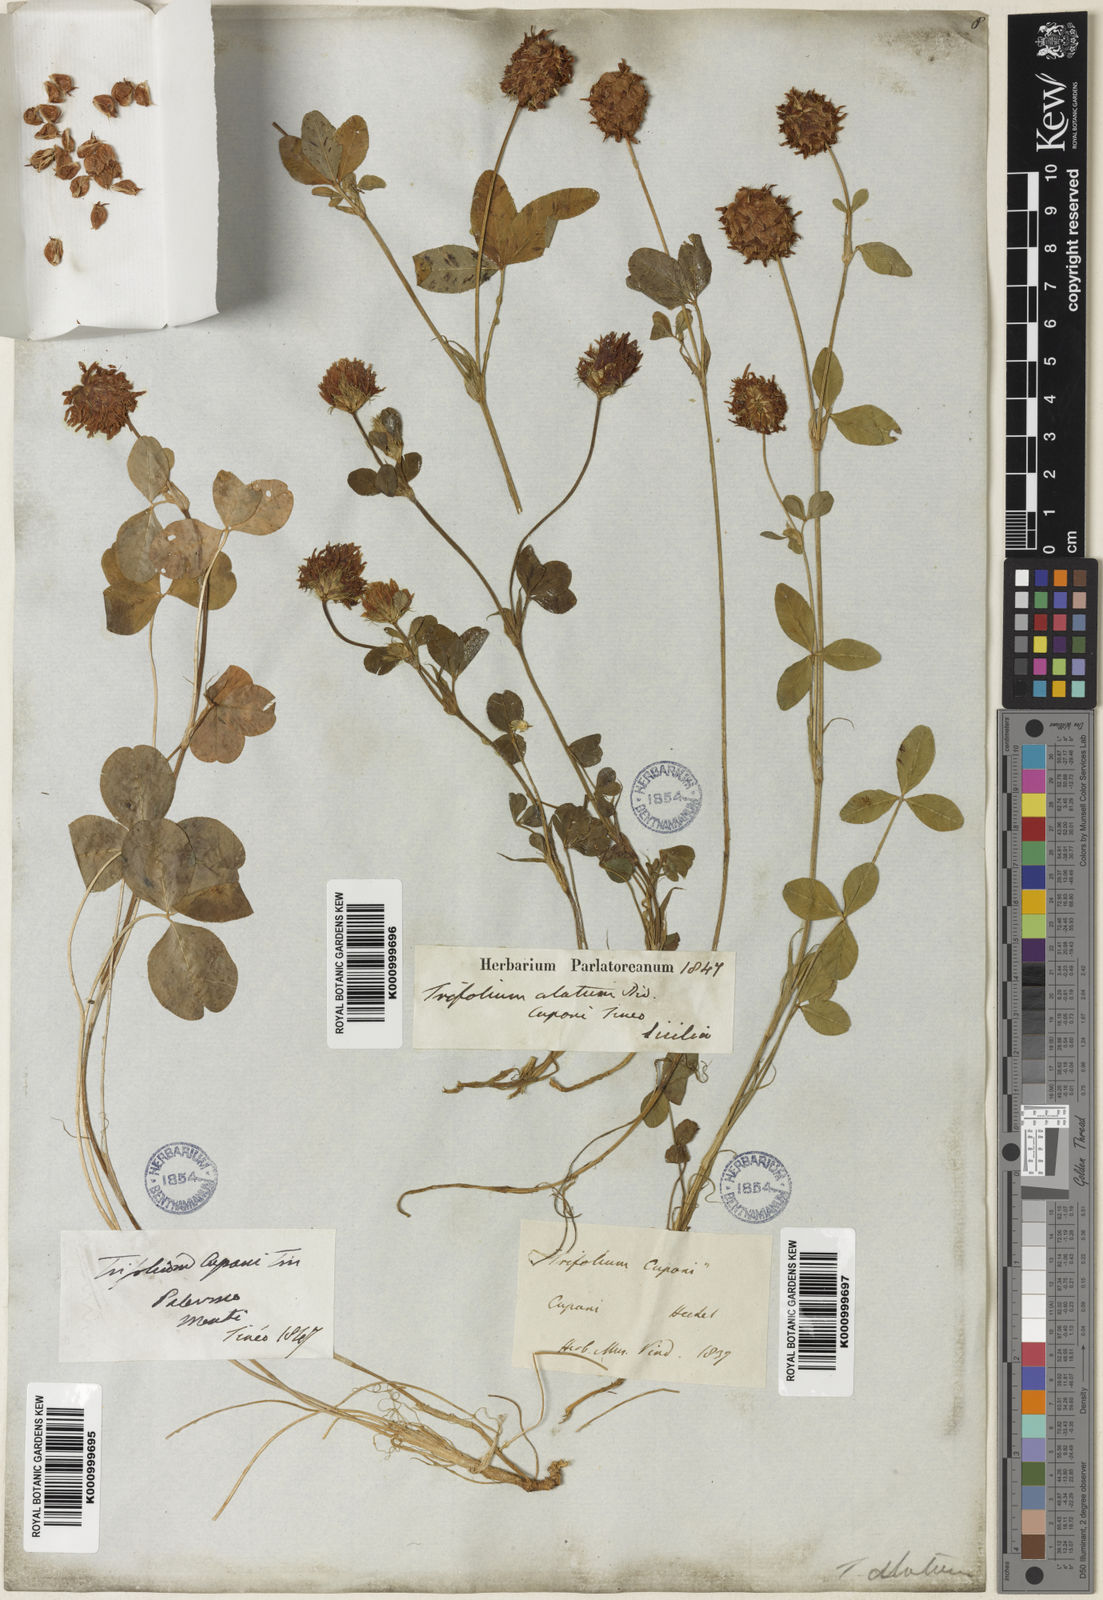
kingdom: Plantae
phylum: Tracheophyta
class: Magnoliopsida
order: Fabales
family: Fabaceae
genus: Trifolium
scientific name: Trifolium physodes
